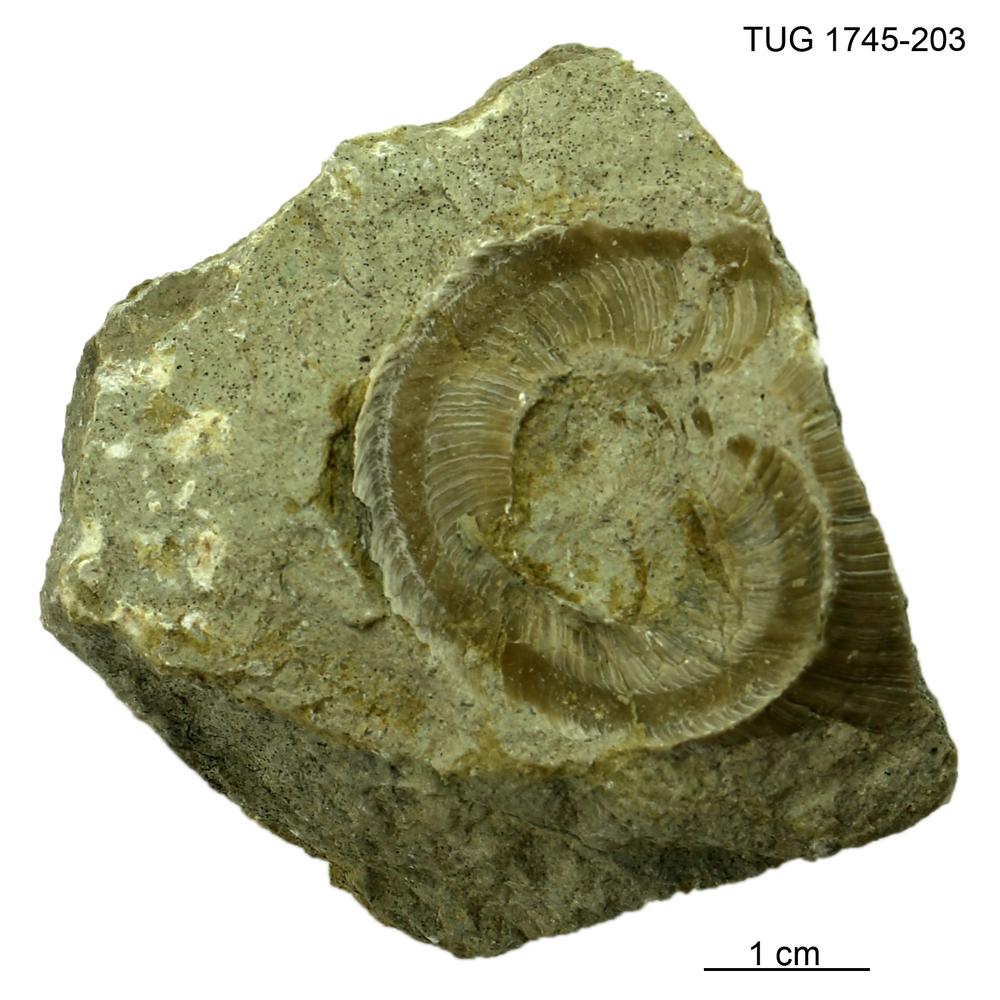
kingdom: Animalia
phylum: Mollusca
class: Cephalopoda
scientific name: Cephalopoda
